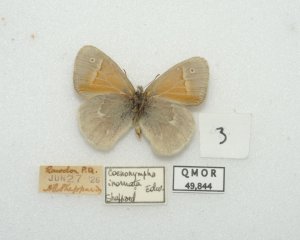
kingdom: Animalia
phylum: Arthropoda
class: Insecta
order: Lepidoptera
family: Nymphalidae
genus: Coenonympha
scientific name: Coenonympha tullia
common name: Large Heath
